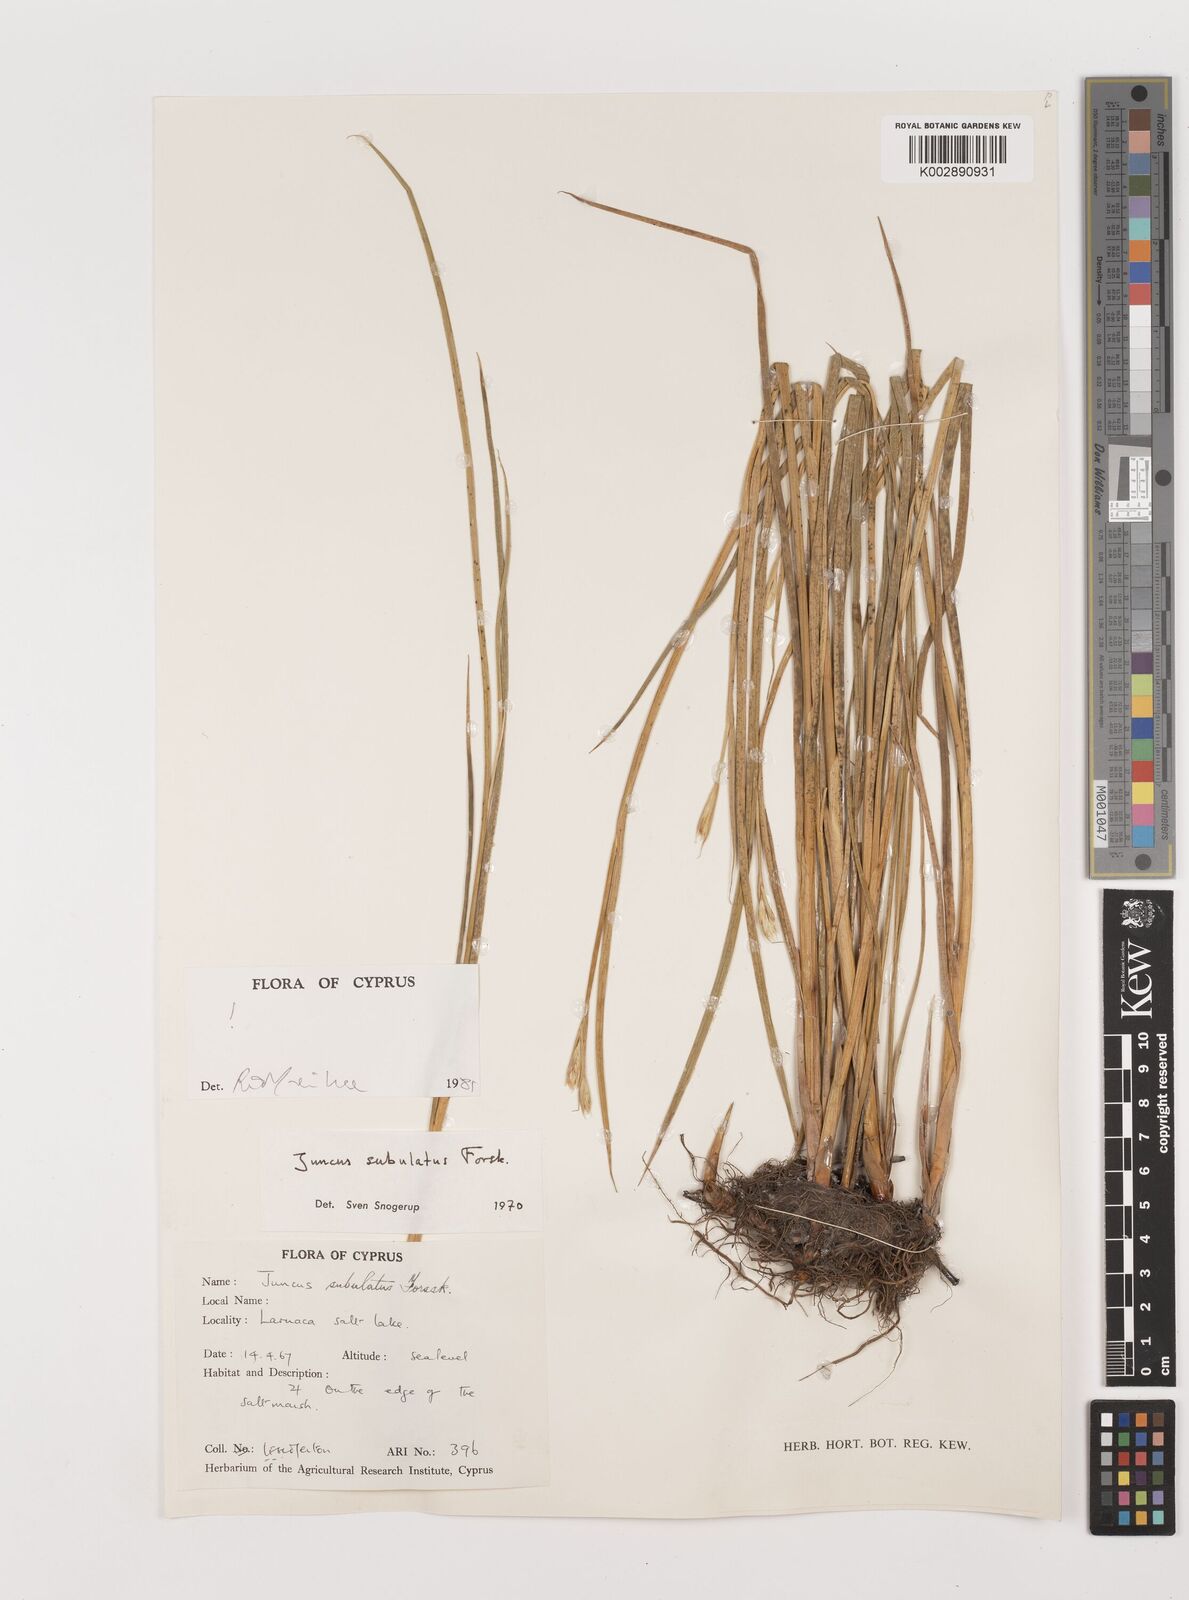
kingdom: Plantae
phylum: Tracheophyta
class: Liliopsida
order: Poales
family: Juncaceae
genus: Juncus
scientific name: Juncus subulatus
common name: Somerset rush
